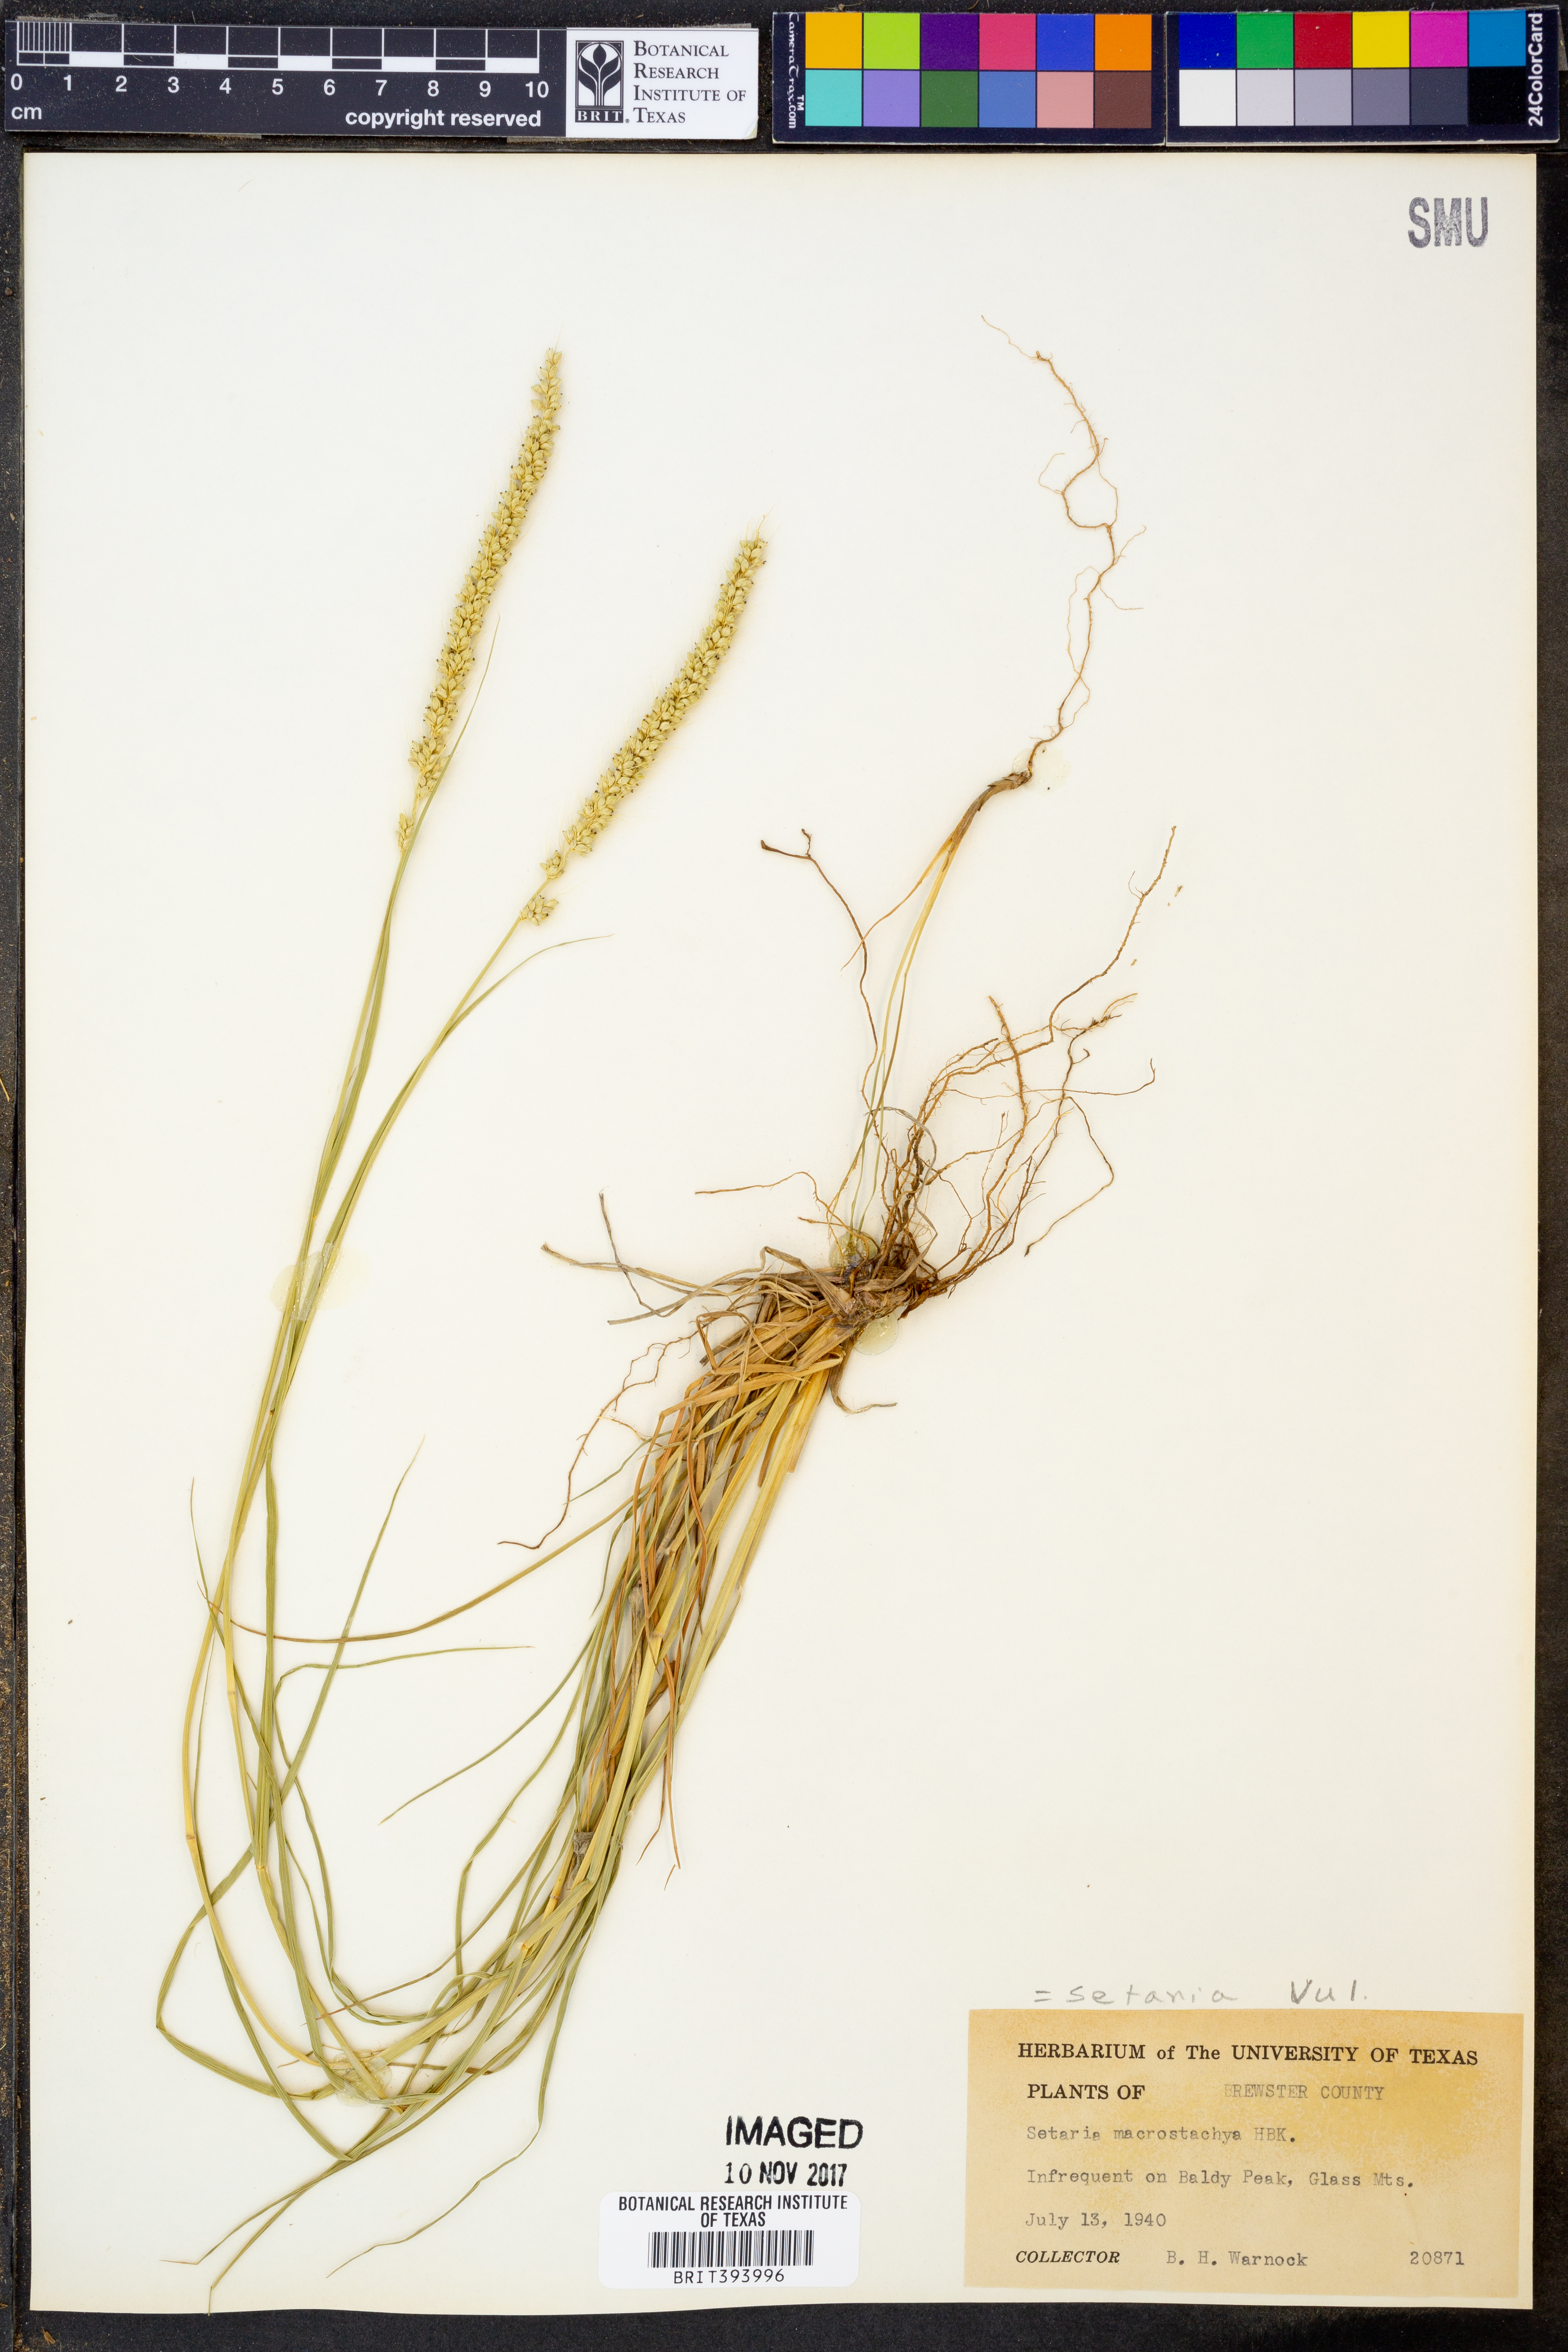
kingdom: Plantae
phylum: Tracheophyta
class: Liliopsida
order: Poales
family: Poaceae
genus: Setaria
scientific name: Setaria macrostachya
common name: Plains bristle grass
